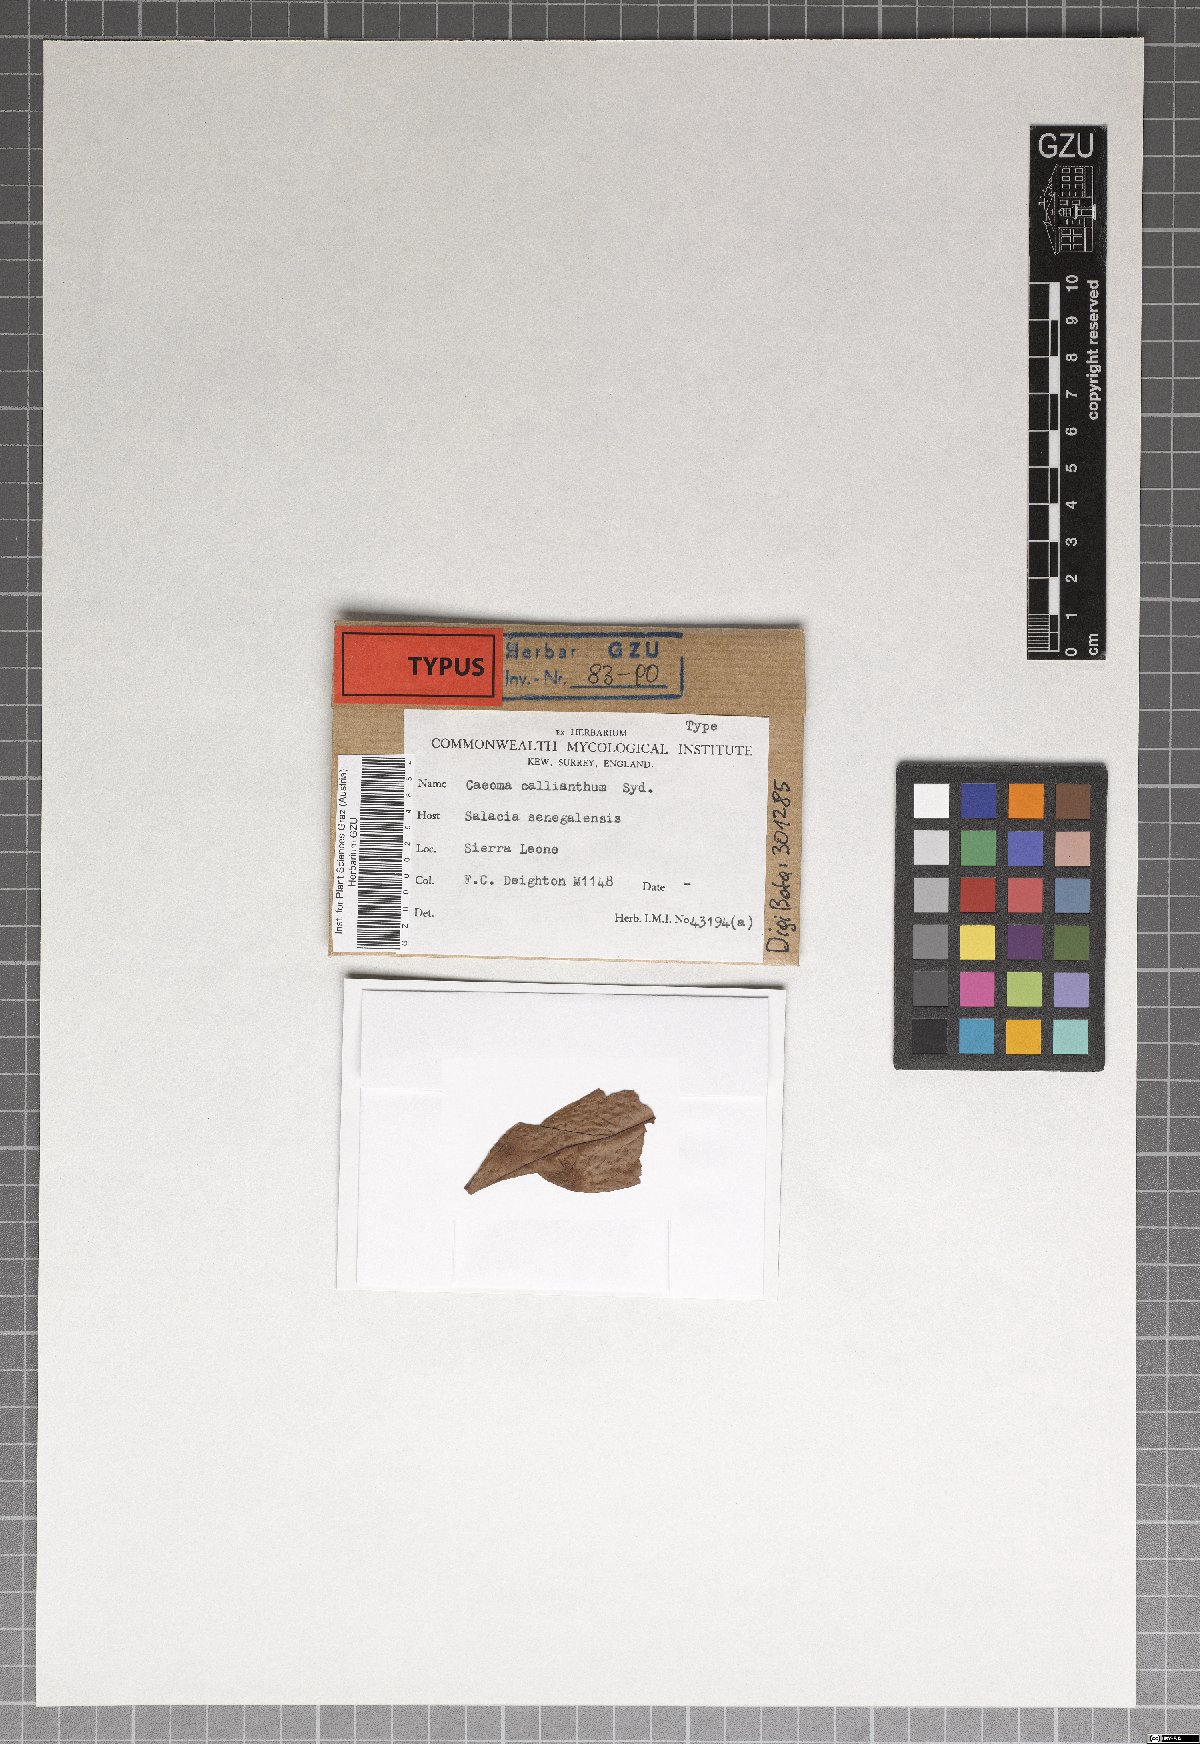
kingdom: Fungi
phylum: Basidiomycota
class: Pucciniomycetes
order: Pucciniales
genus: Elateraecium
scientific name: Elateraecium callianthum
